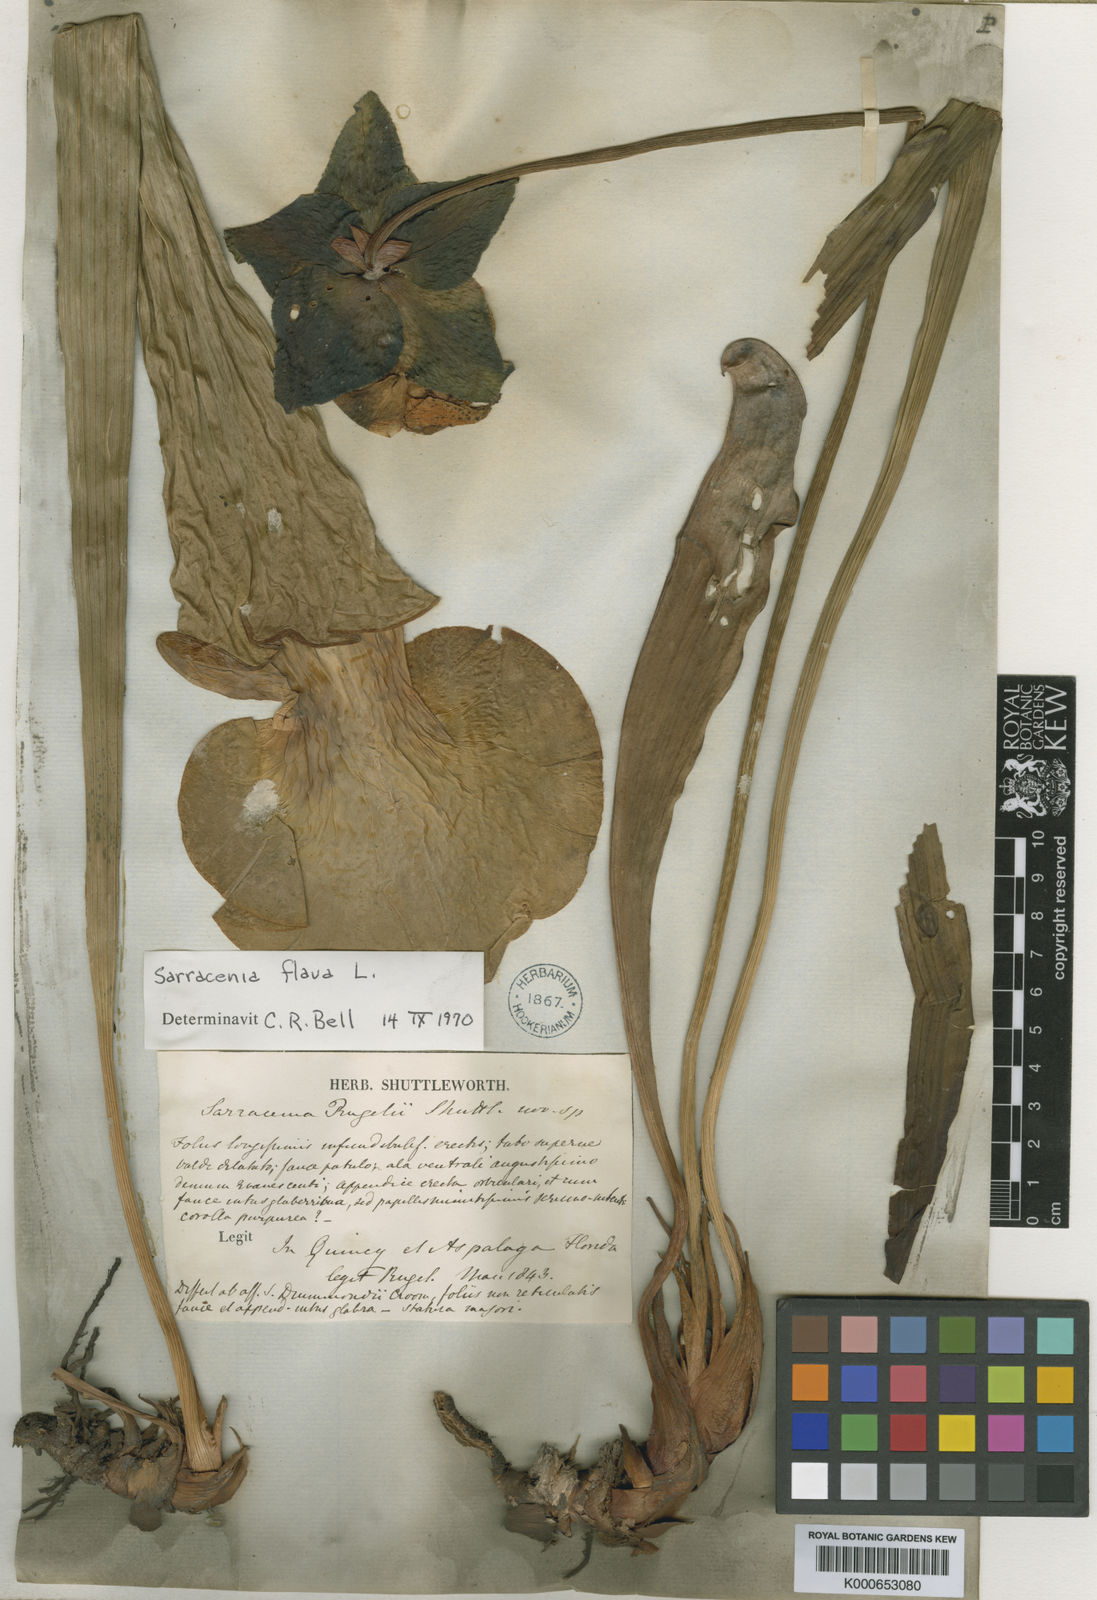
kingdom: Plantae
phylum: Tracheophyta
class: Magnoliopsida
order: Ericales
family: Sarraceniaceae
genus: Sarracenia
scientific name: Sarracenia flava
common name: Trumpets
